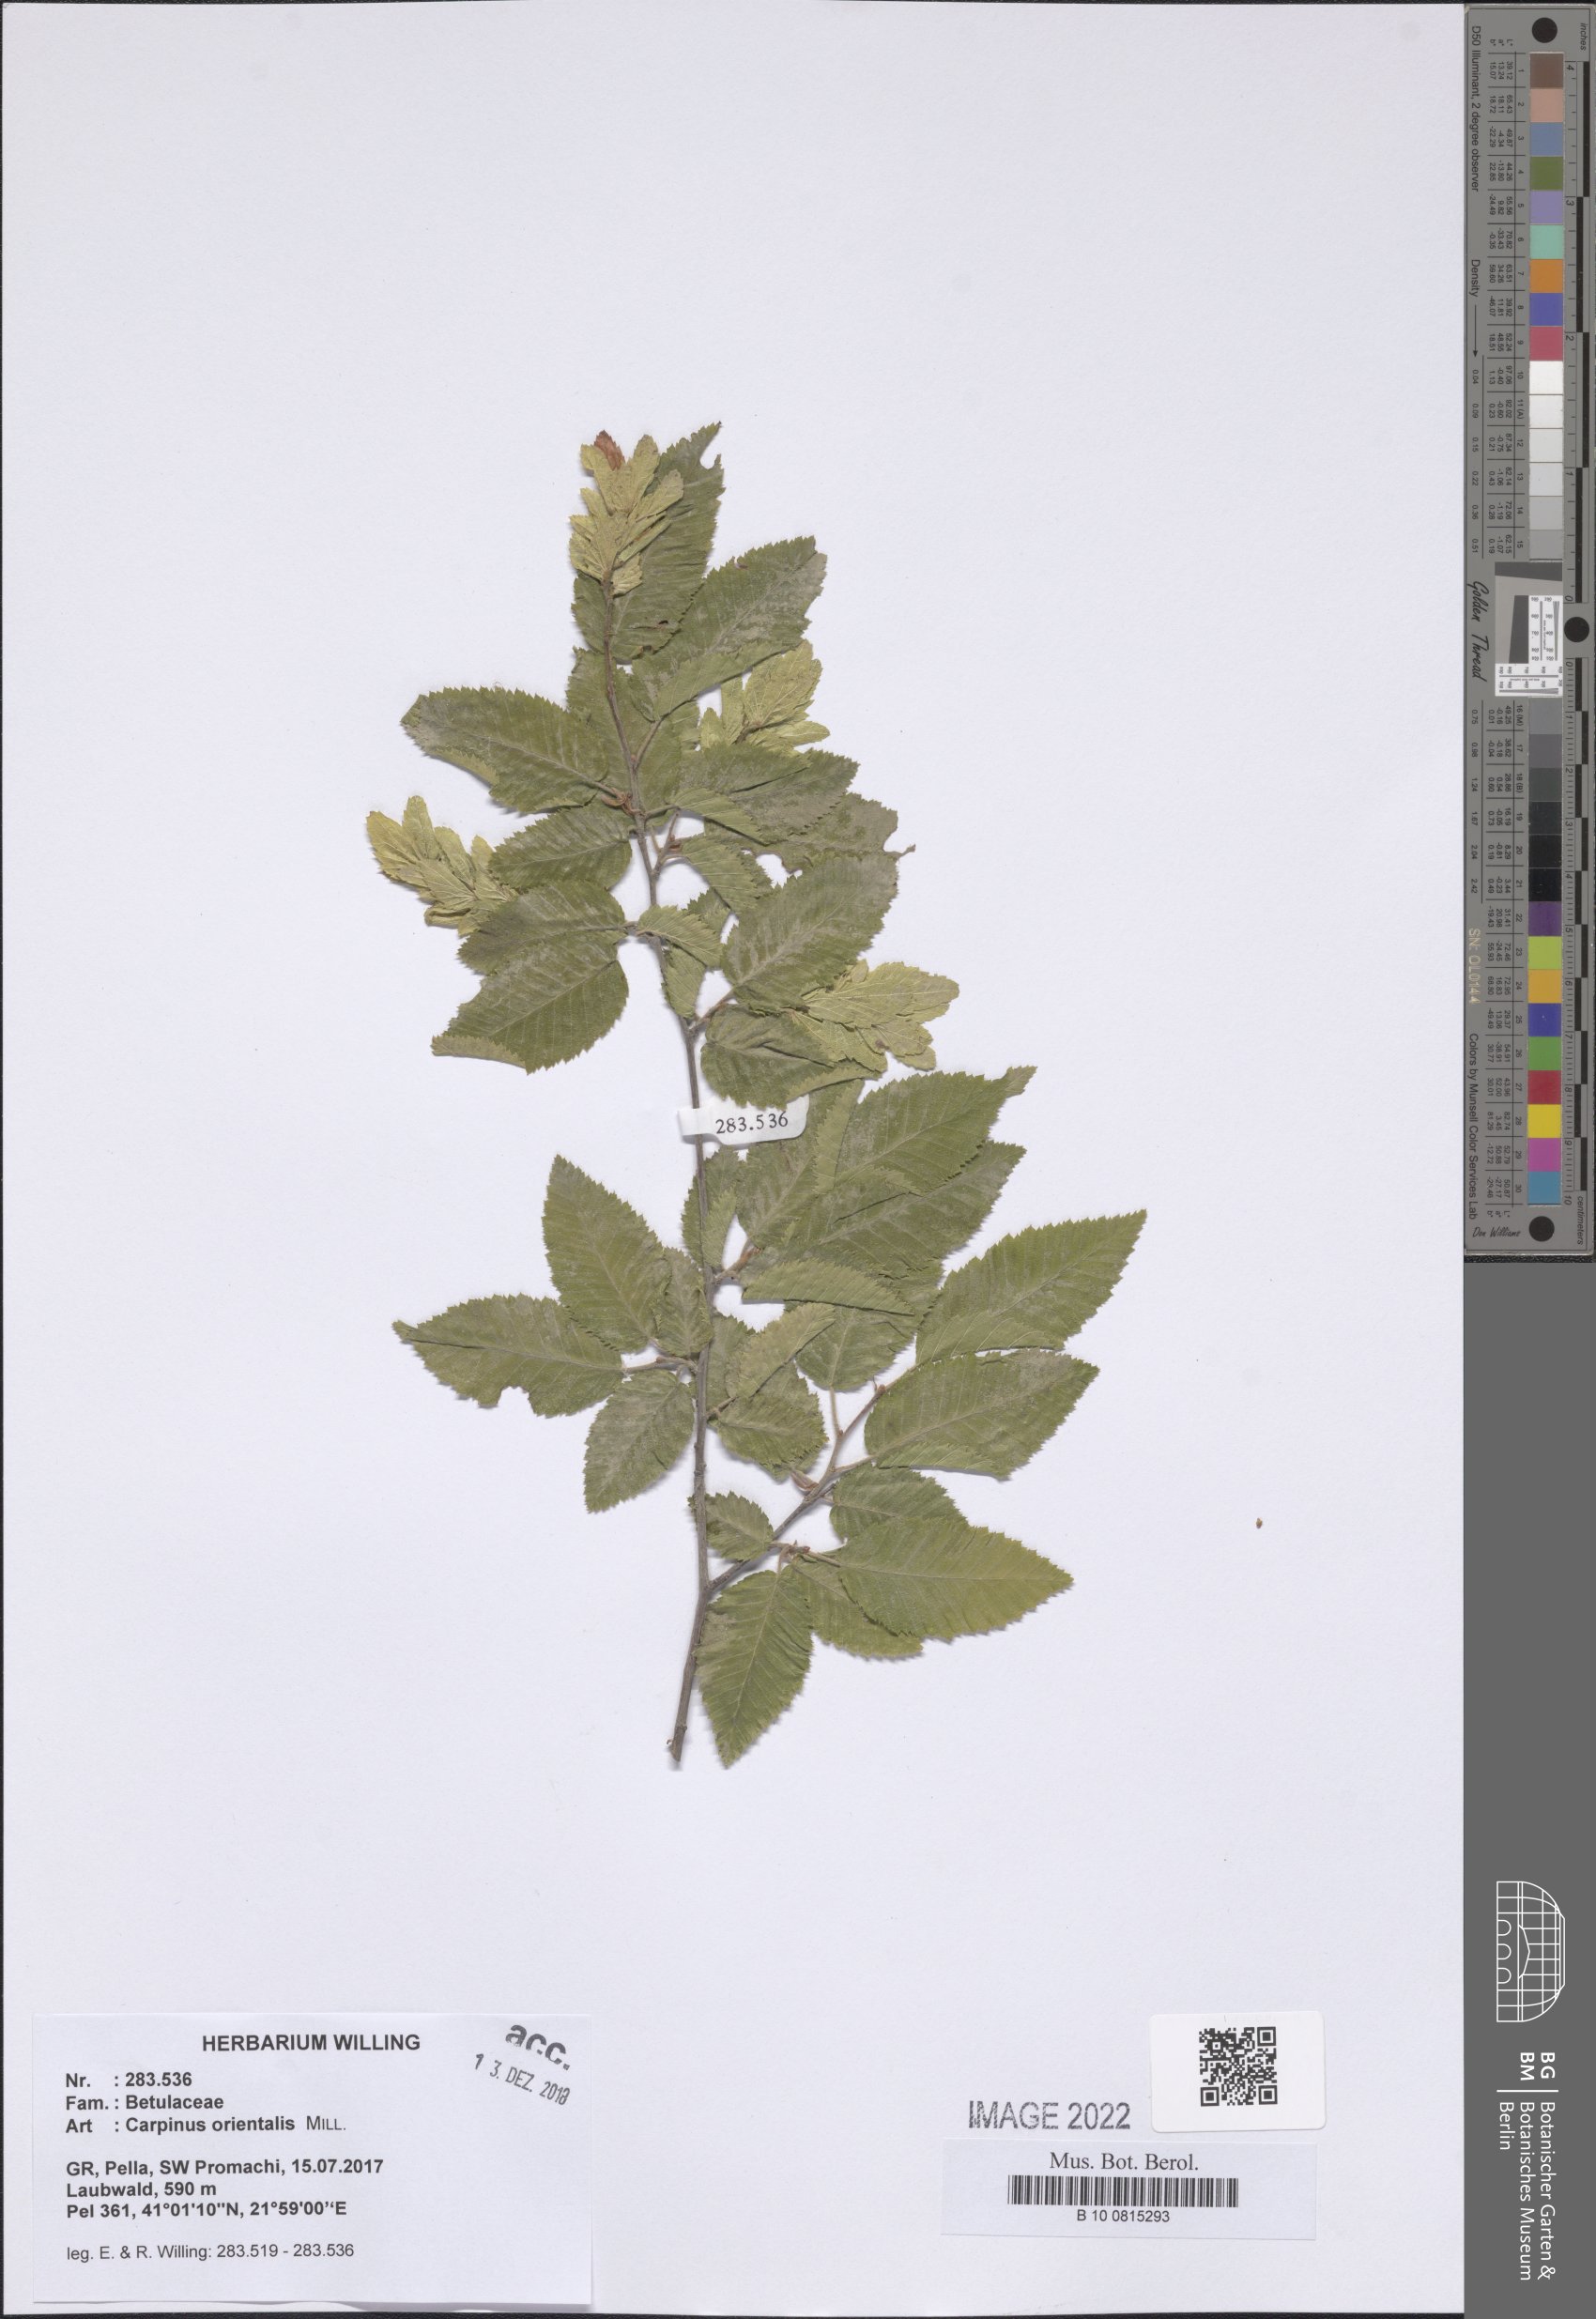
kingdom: Plantae
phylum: Tracheophyta
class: Magnoliopsida
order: Fagales
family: Betulaceae
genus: Carpinus
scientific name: Carpinus orientalis
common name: Eastern hornbeam
